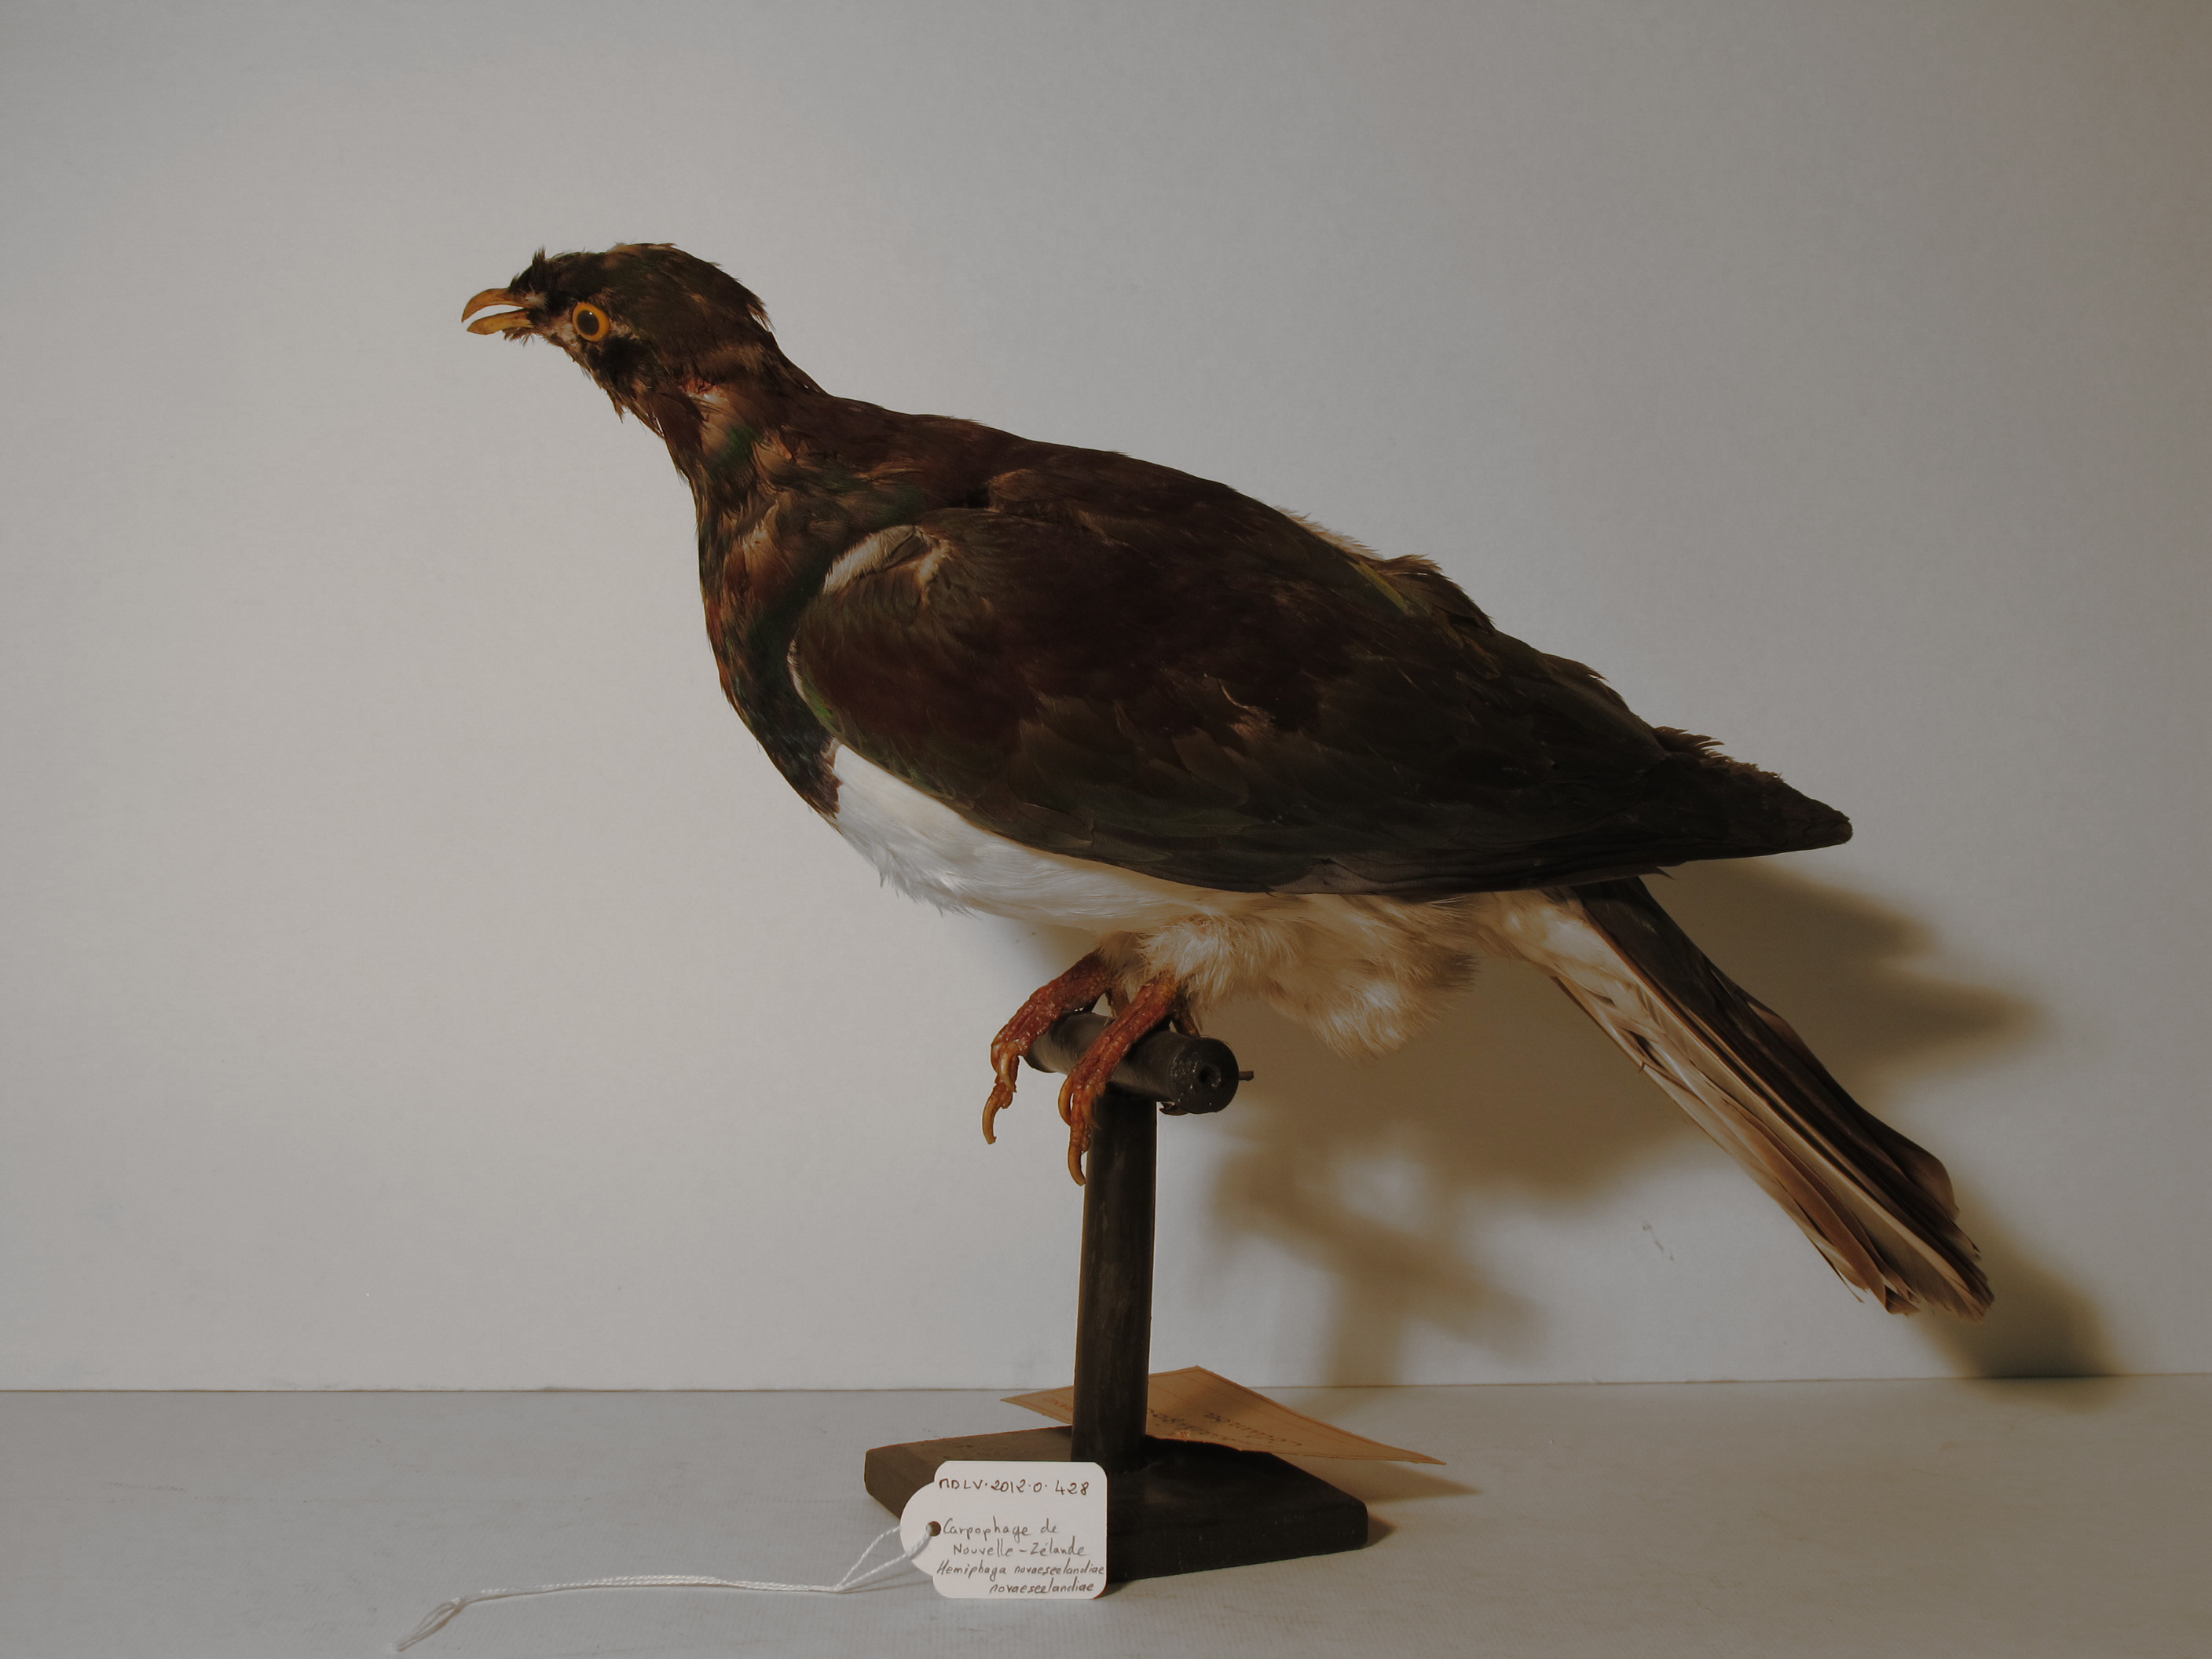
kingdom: Animalia
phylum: Chordata
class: Aves
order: Columbiformes
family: Columbidae
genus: Hemiphaga
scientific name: Hemiphaga novaeseelandiae
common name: New Zealand Pigeon
